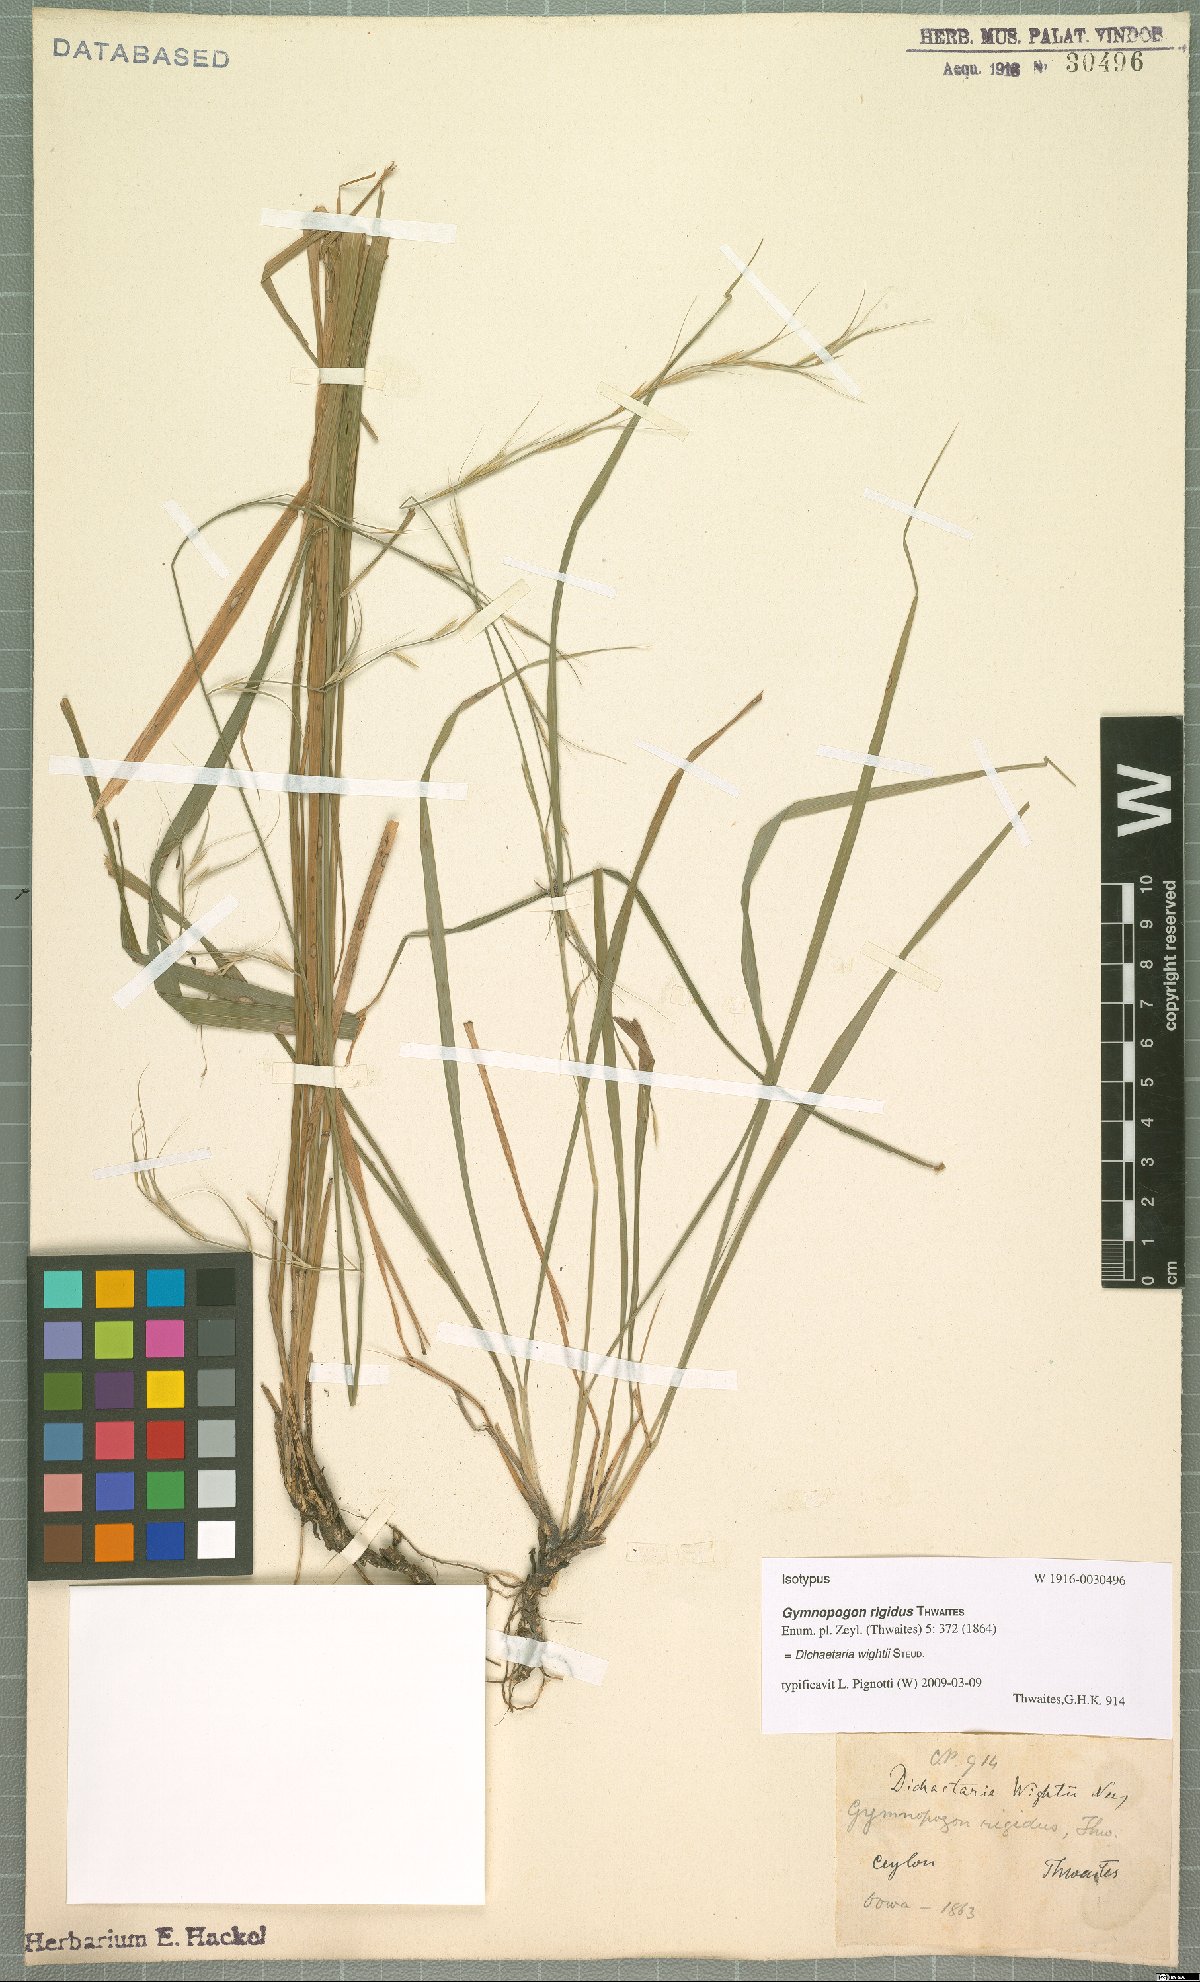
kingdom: Plantae
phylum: Tracheophyta
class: Liliopsida
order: Poales
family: Poaceae
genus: Dichaetaria
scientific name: Dichaetaria wightii
